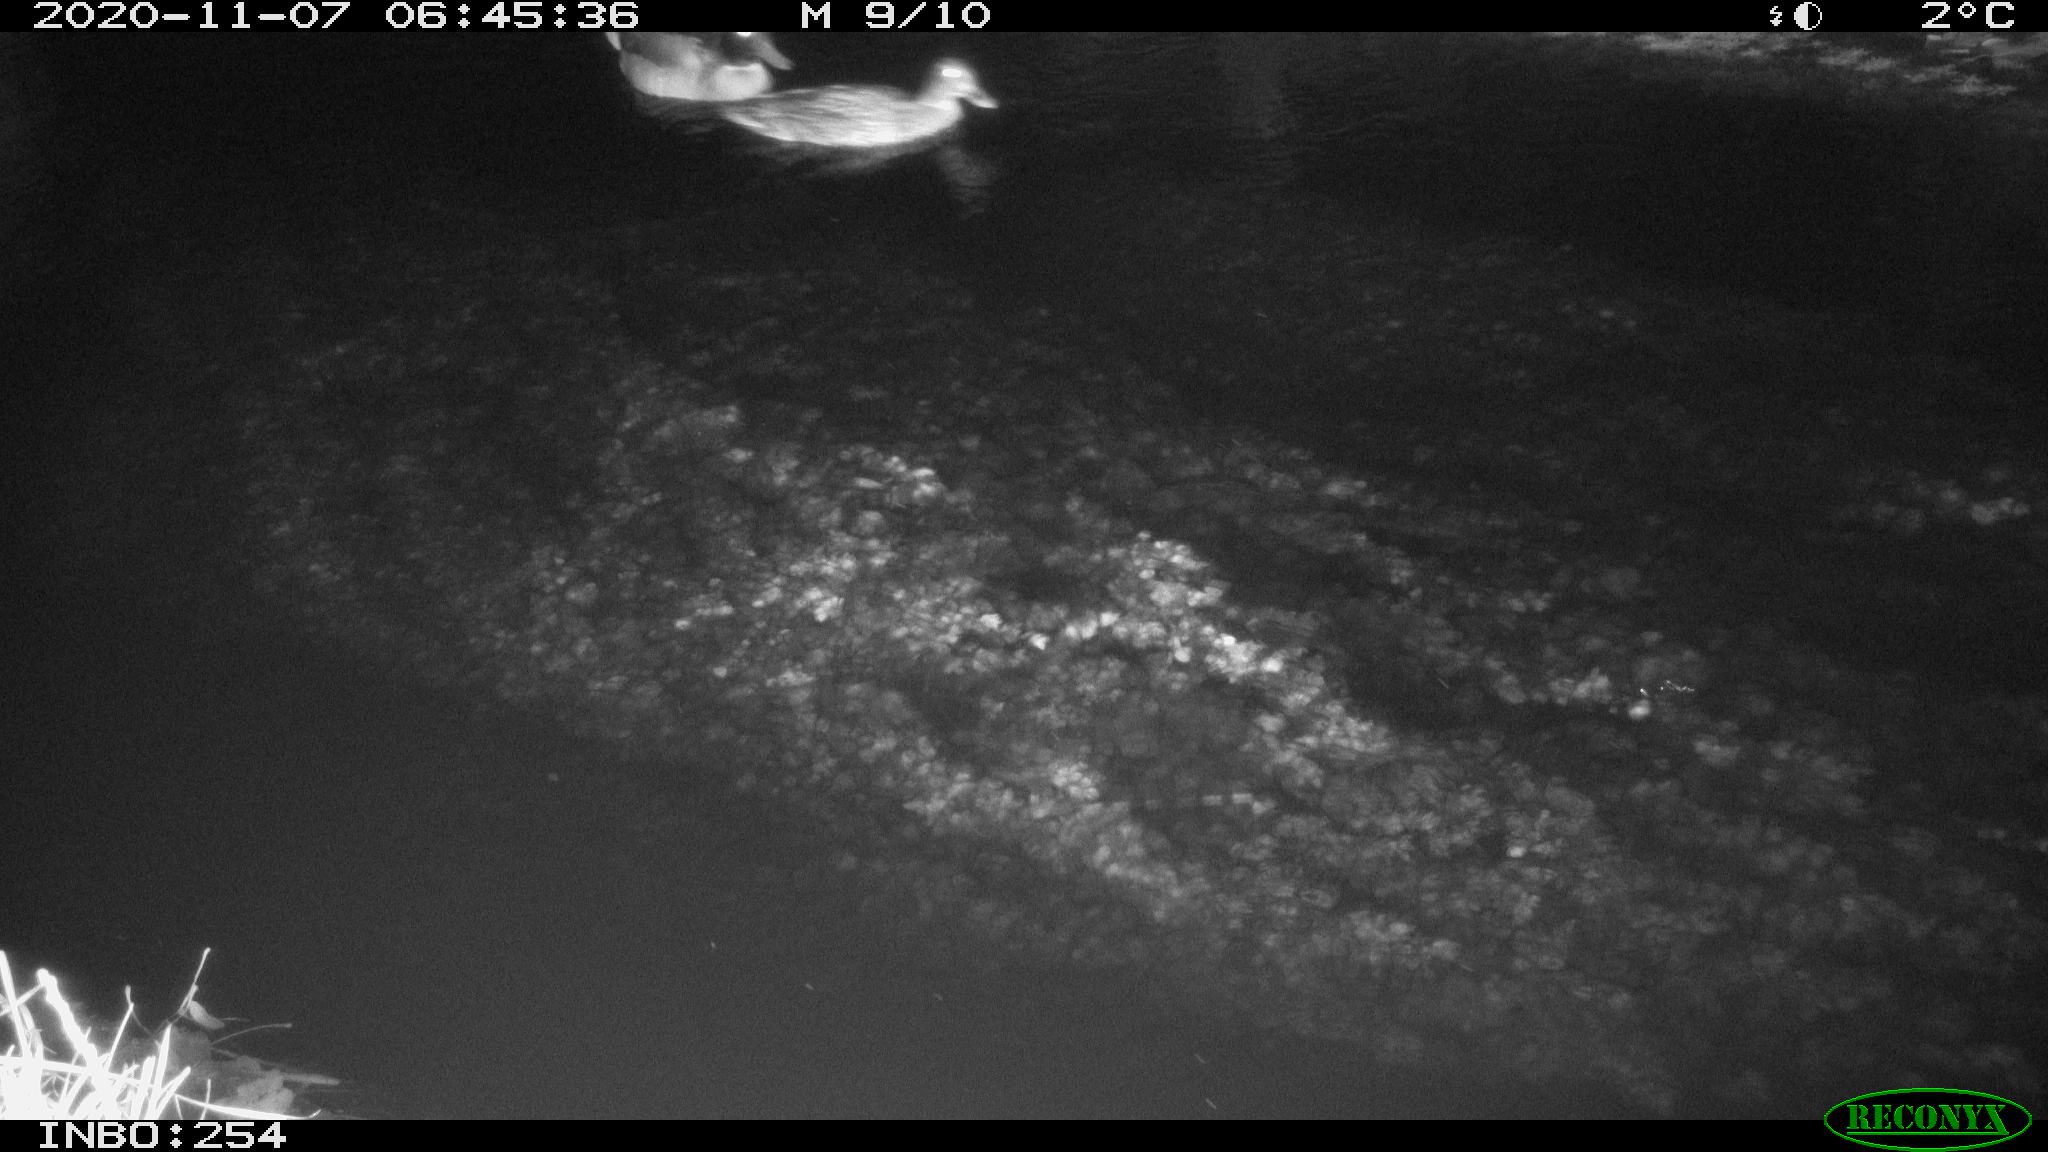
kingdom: Animalia
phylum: Chordata
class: Aves
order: Anseriformes
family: Anatidae
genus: Anas
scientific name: Anas platyrhynchos
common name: Mallard
